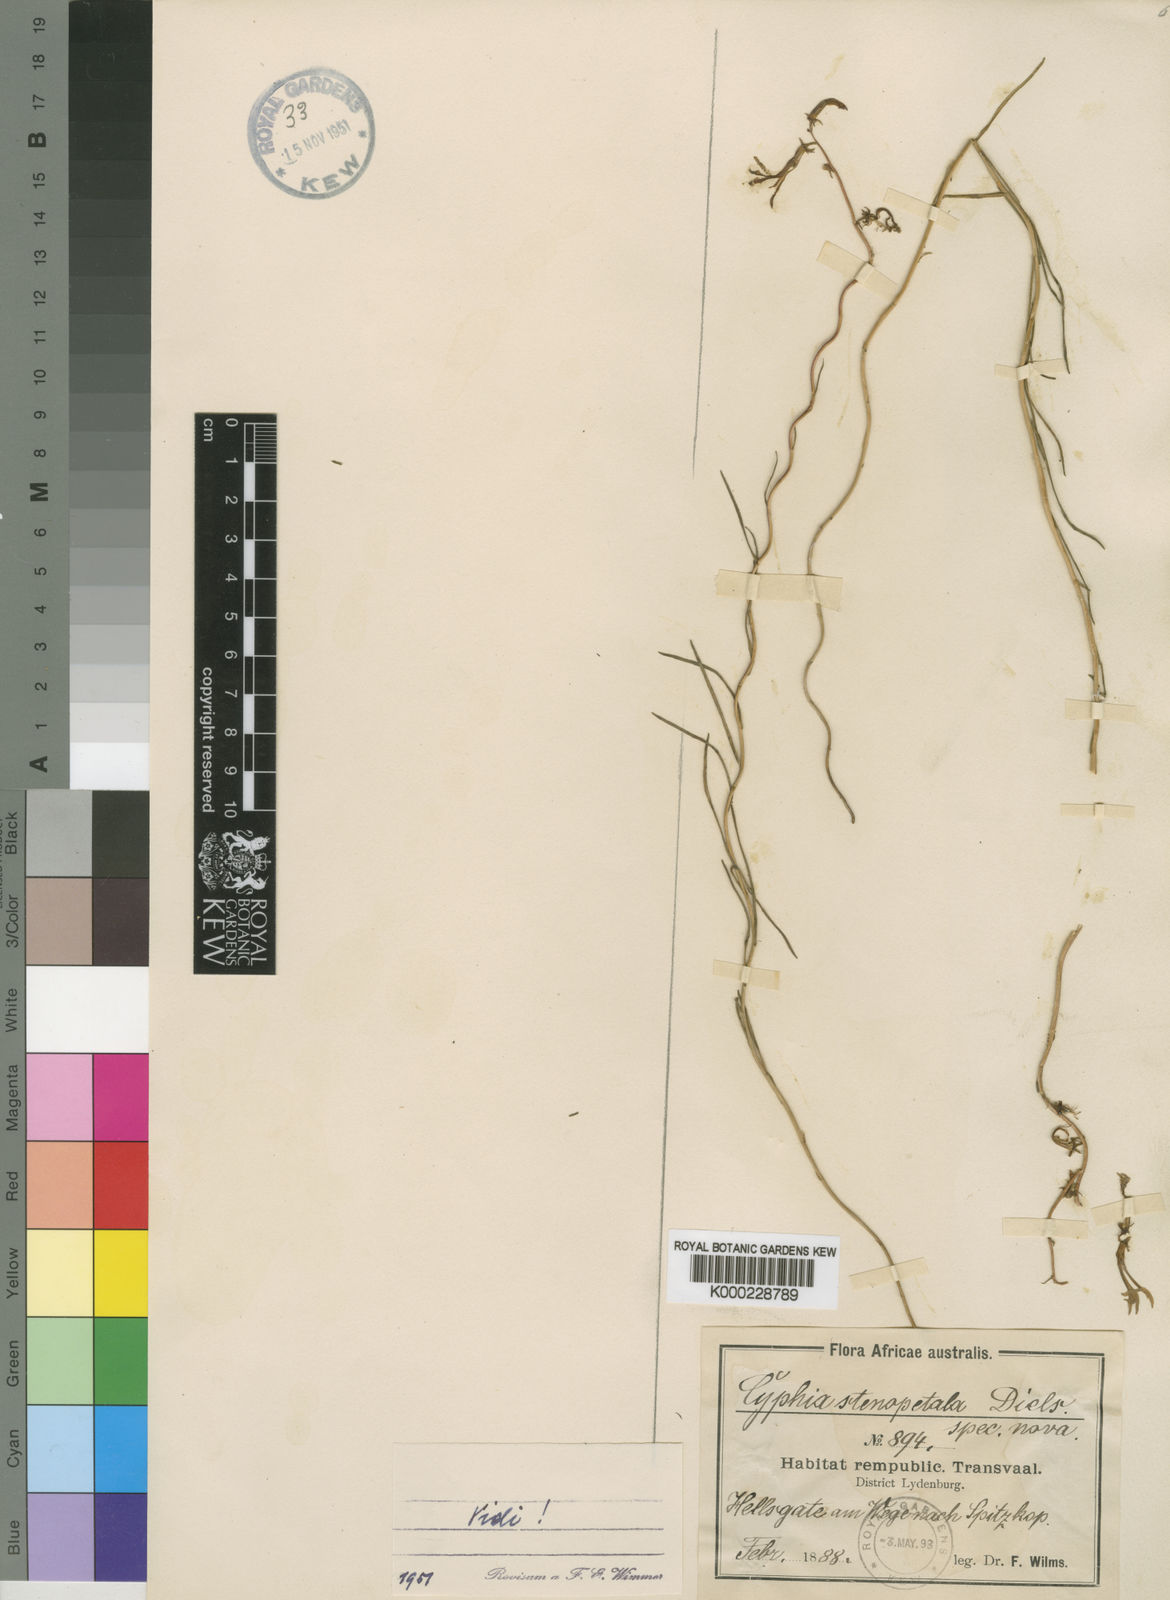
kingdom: Plantae
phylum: Tracheophyta
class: Magnoliopsida
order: Asterales
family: Campanulaceae
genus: Cyphia
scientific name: Cyphia stenopetala
